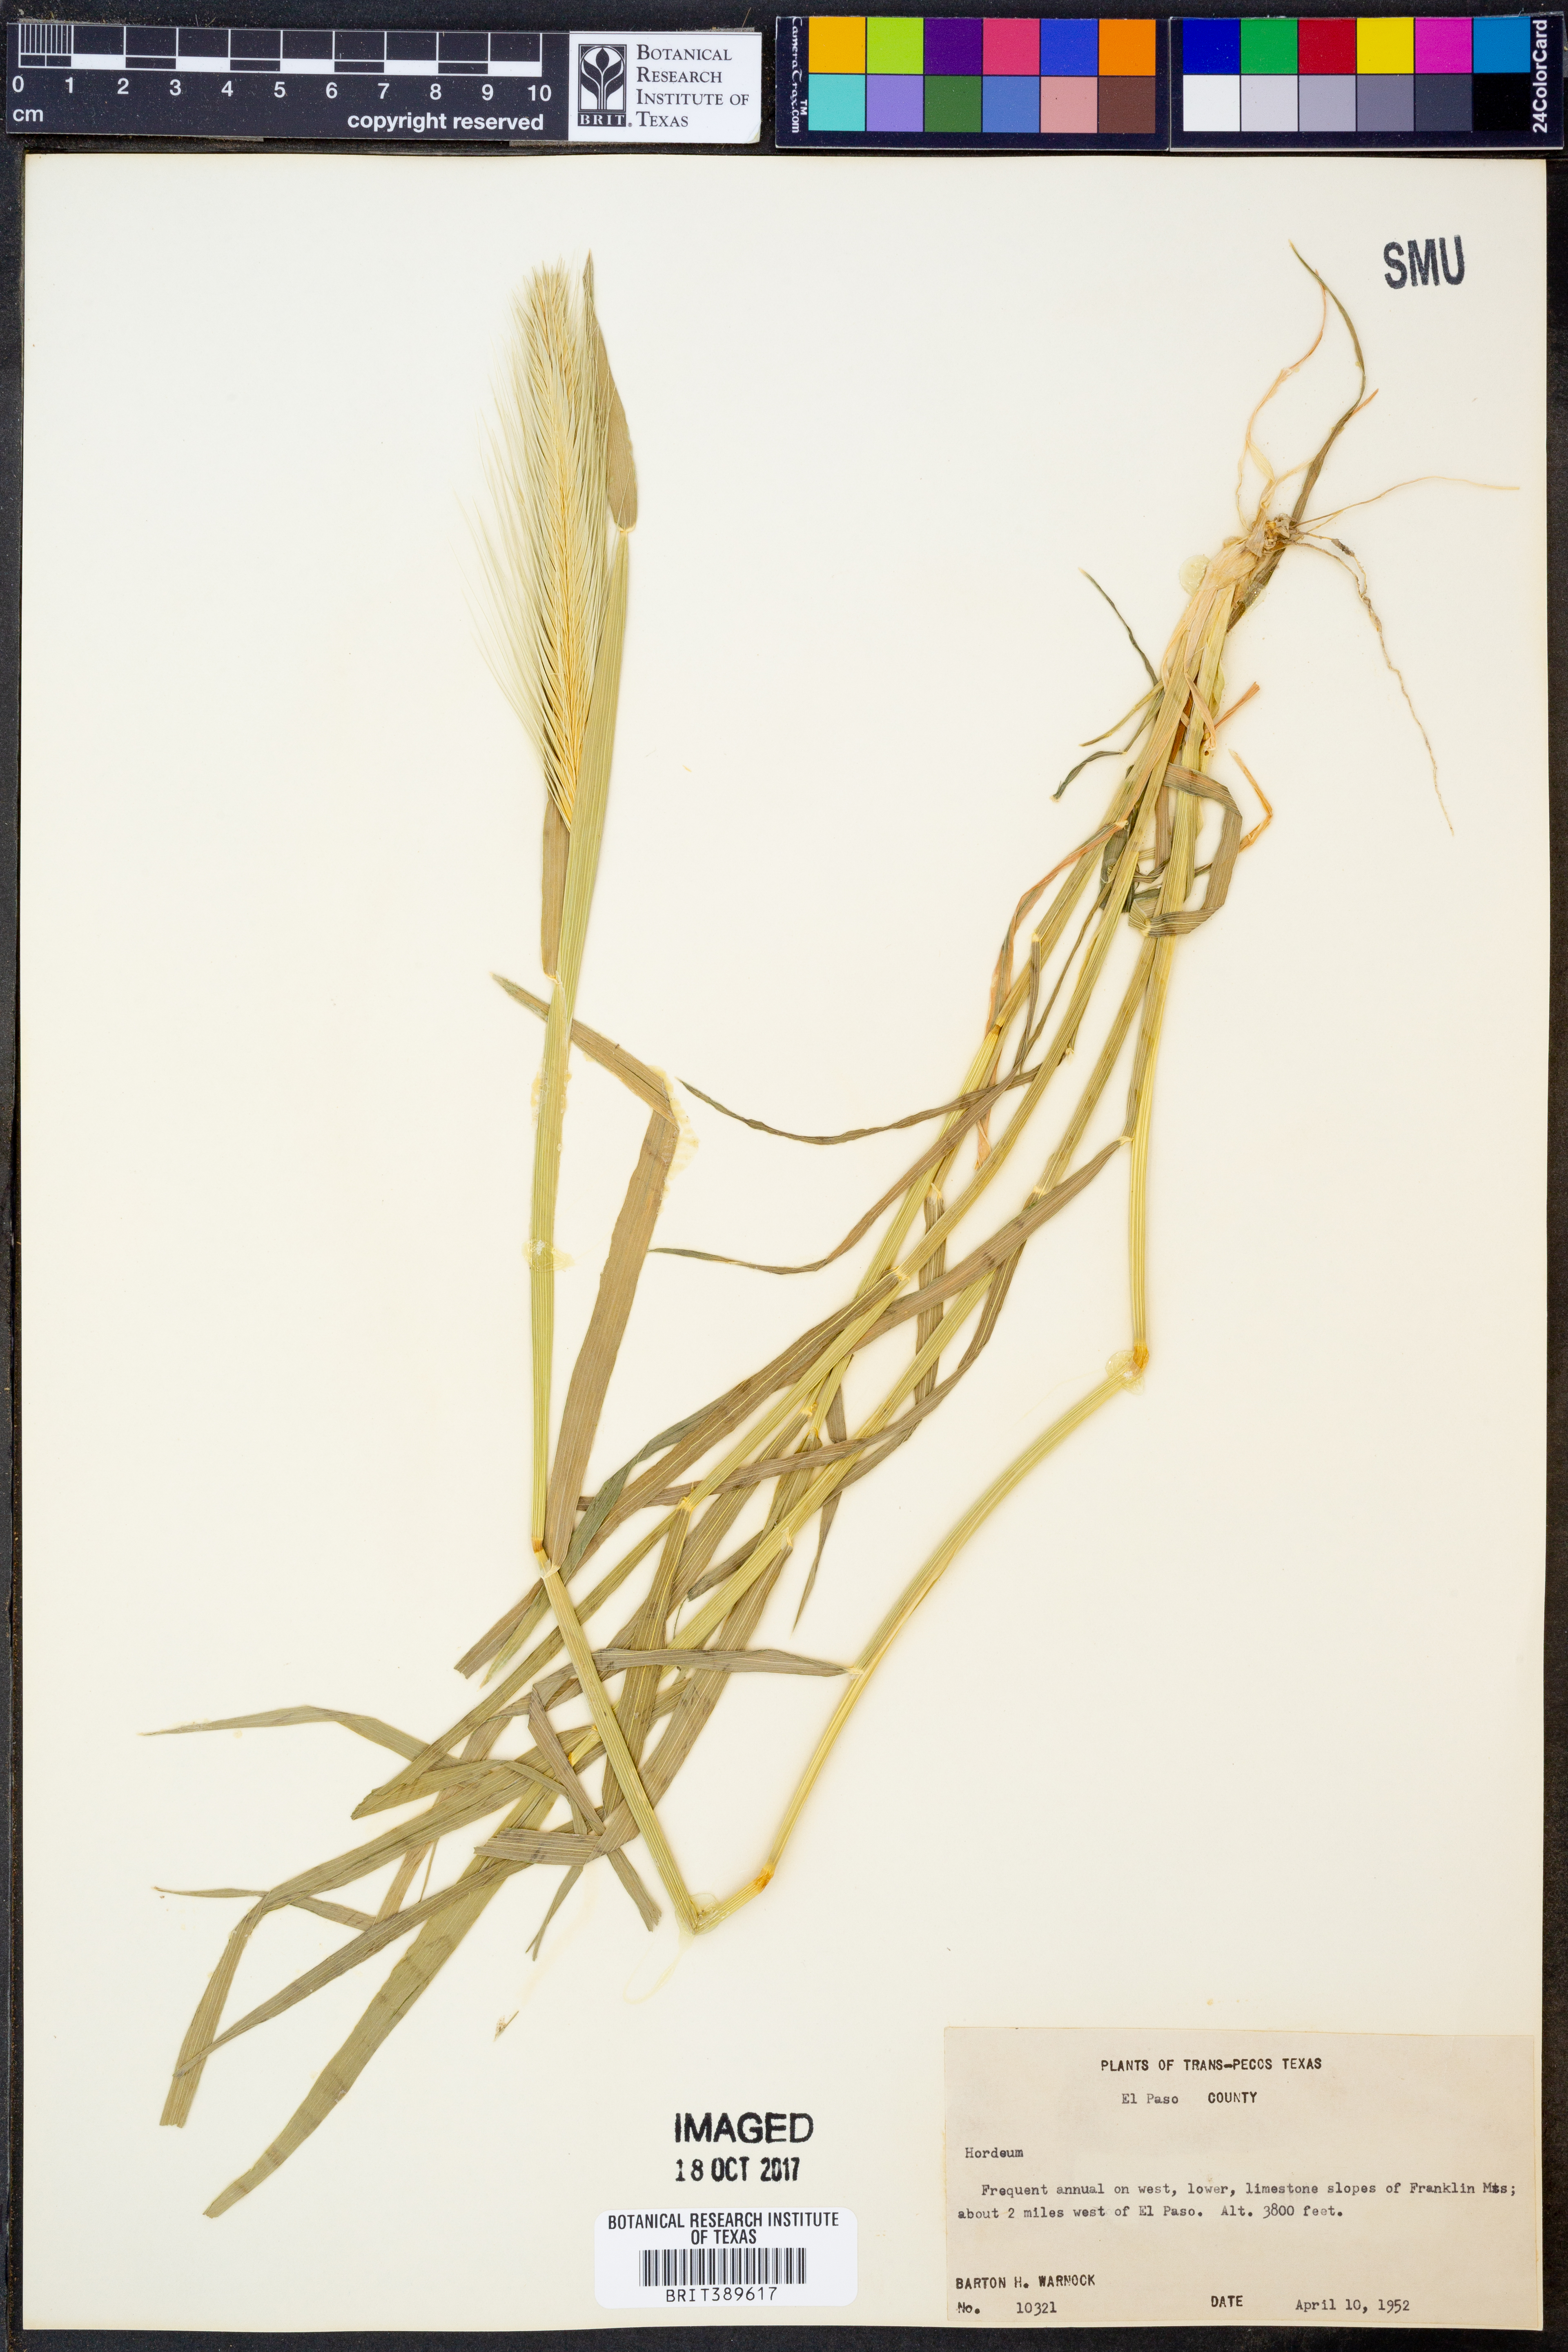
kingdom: Plantae
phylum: Tracheophyta
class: Liliopsida
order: Poales
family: Poaceae
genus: Hordeum
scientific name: Hordeum
